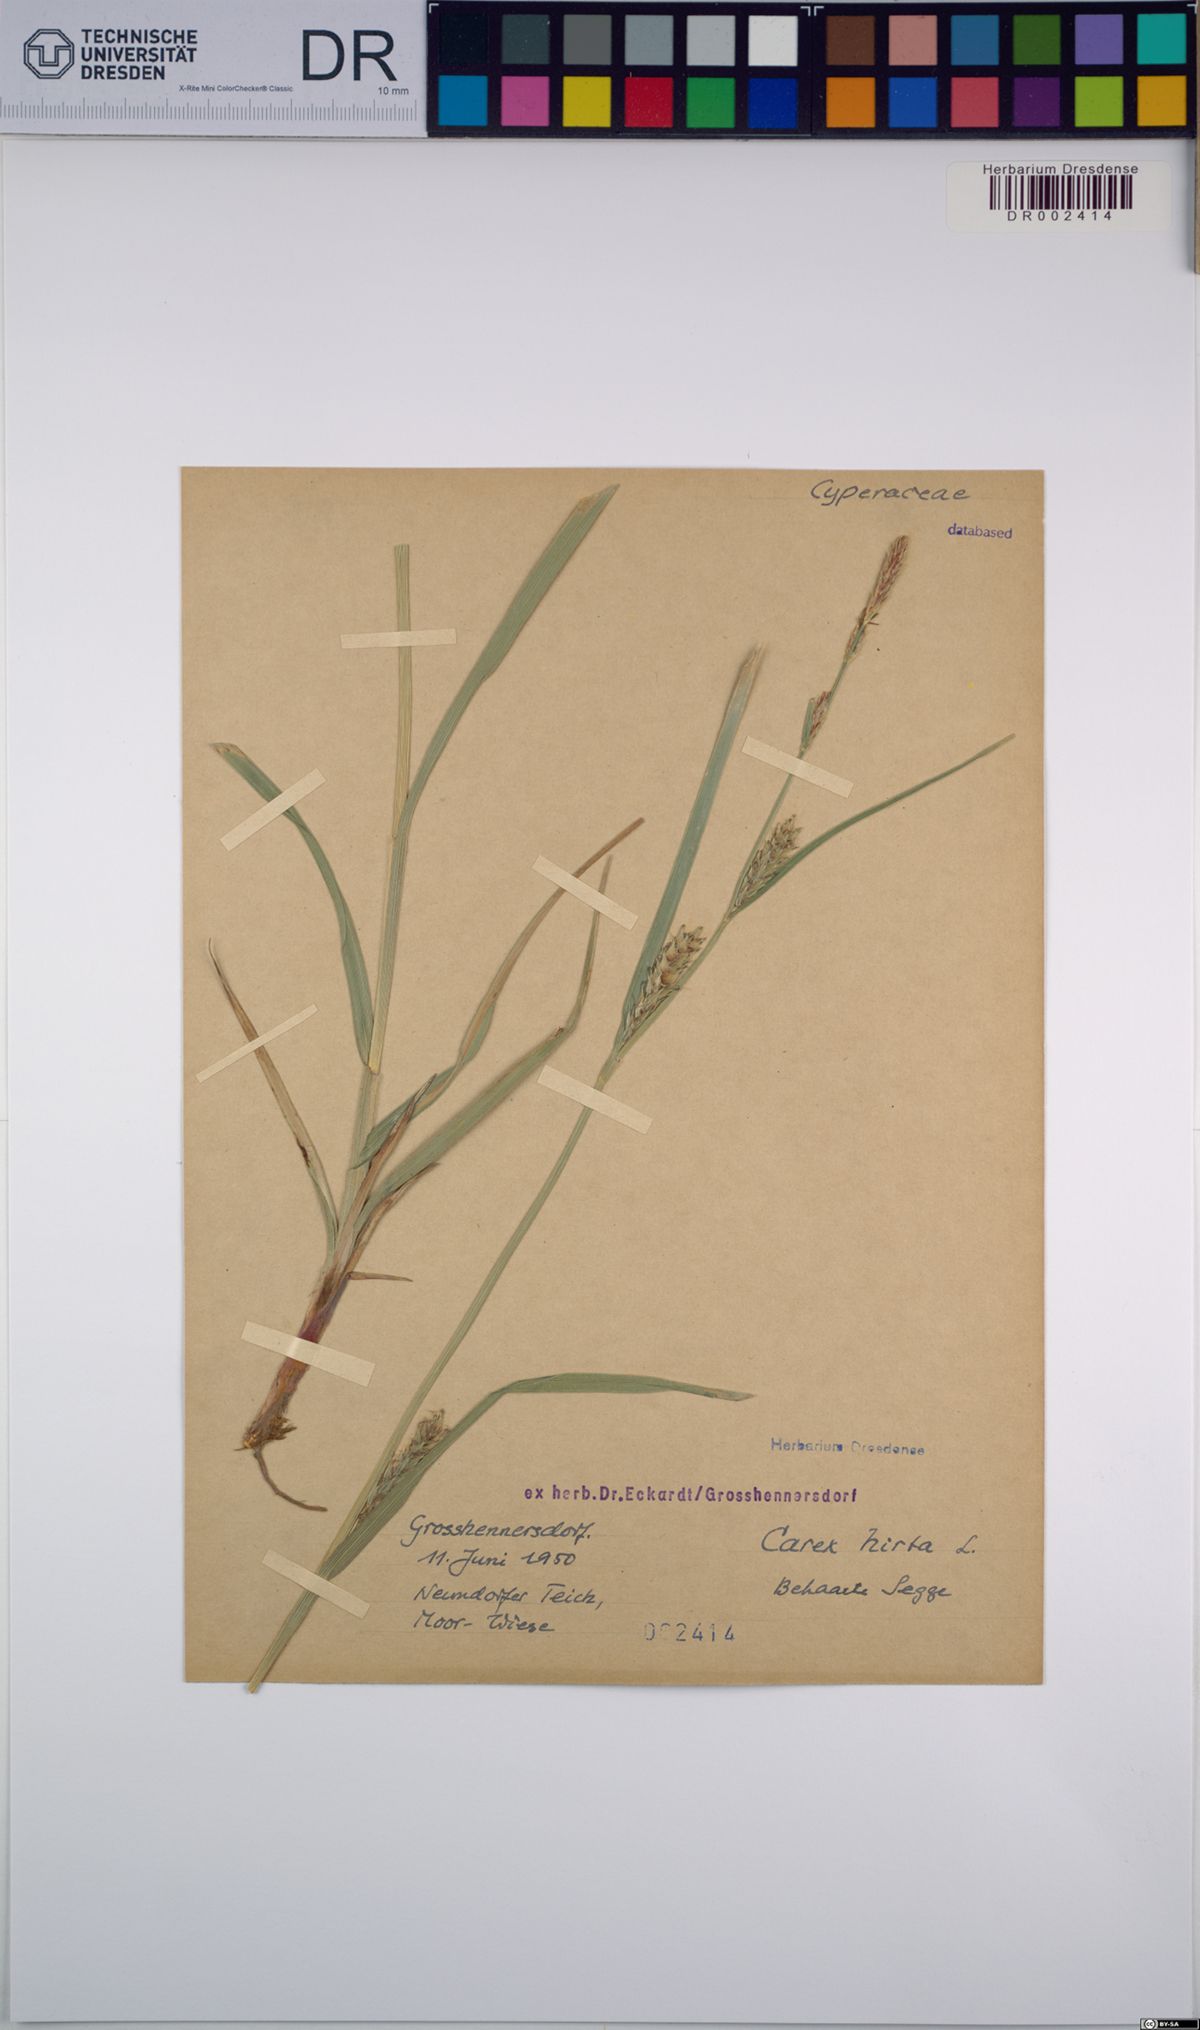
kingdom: Plantae
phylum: Tracheophyta
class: Liliopsida
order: Poales
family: Cyperaceae
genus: Carex
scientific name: Carex hirta
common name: Hairy sedge
